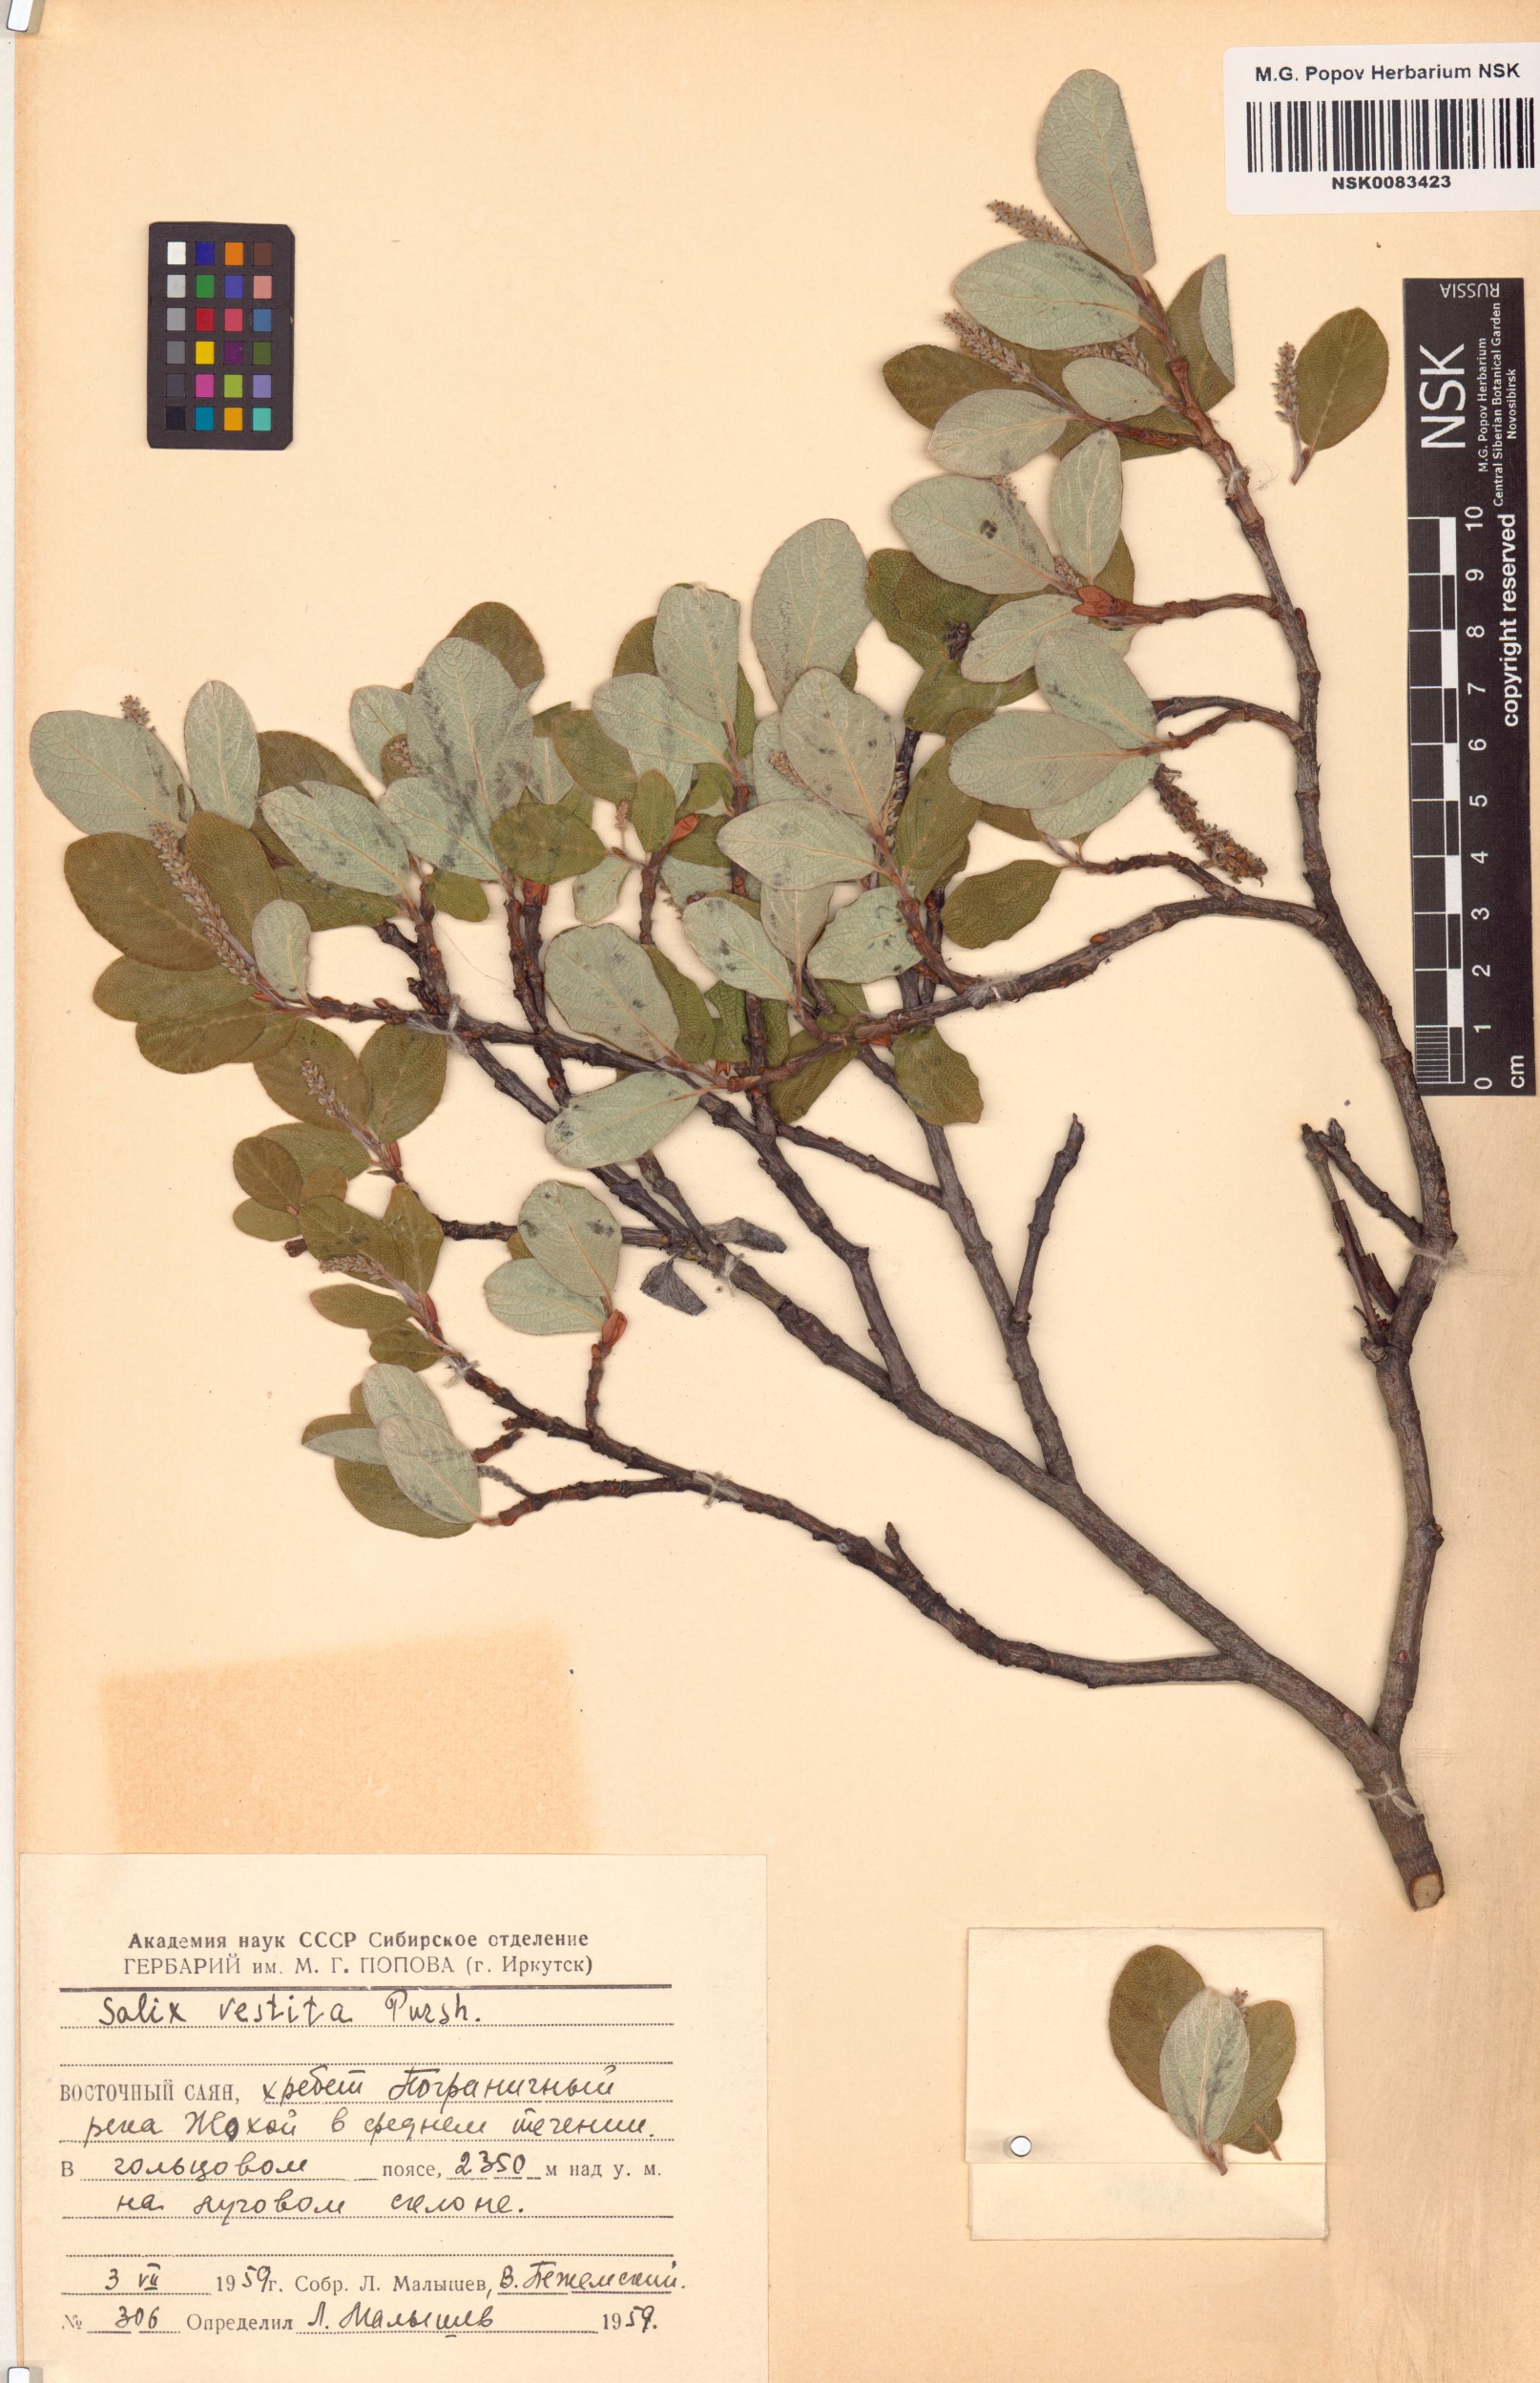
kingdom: Plantae
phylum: Tracheophyta
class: Magnoliopsida
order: Malpighiales
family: Salicaceae
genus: Salix
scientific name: Salix vestita
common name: Hairy willow
